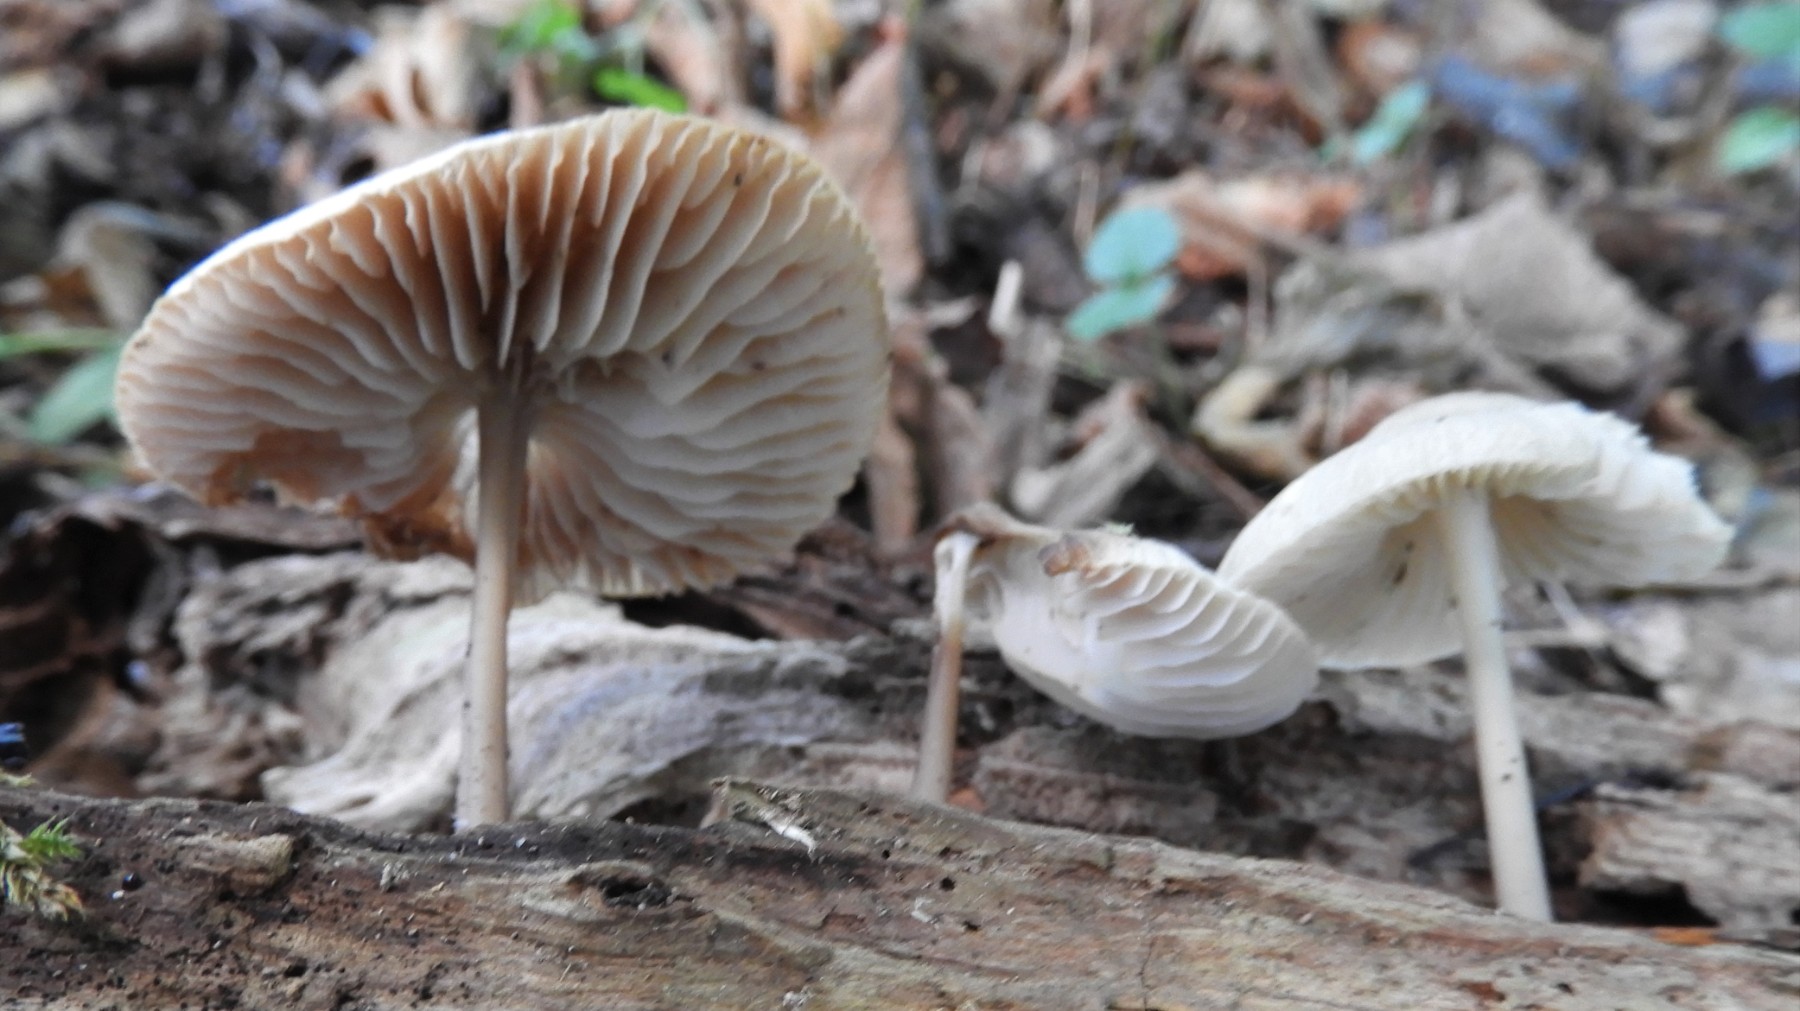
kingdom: Fungi
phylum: Basidiomycota
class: Agaricomycetes
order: Agaricales
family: Mycenaceae
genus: Mycena
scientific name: Mycena galericulata
